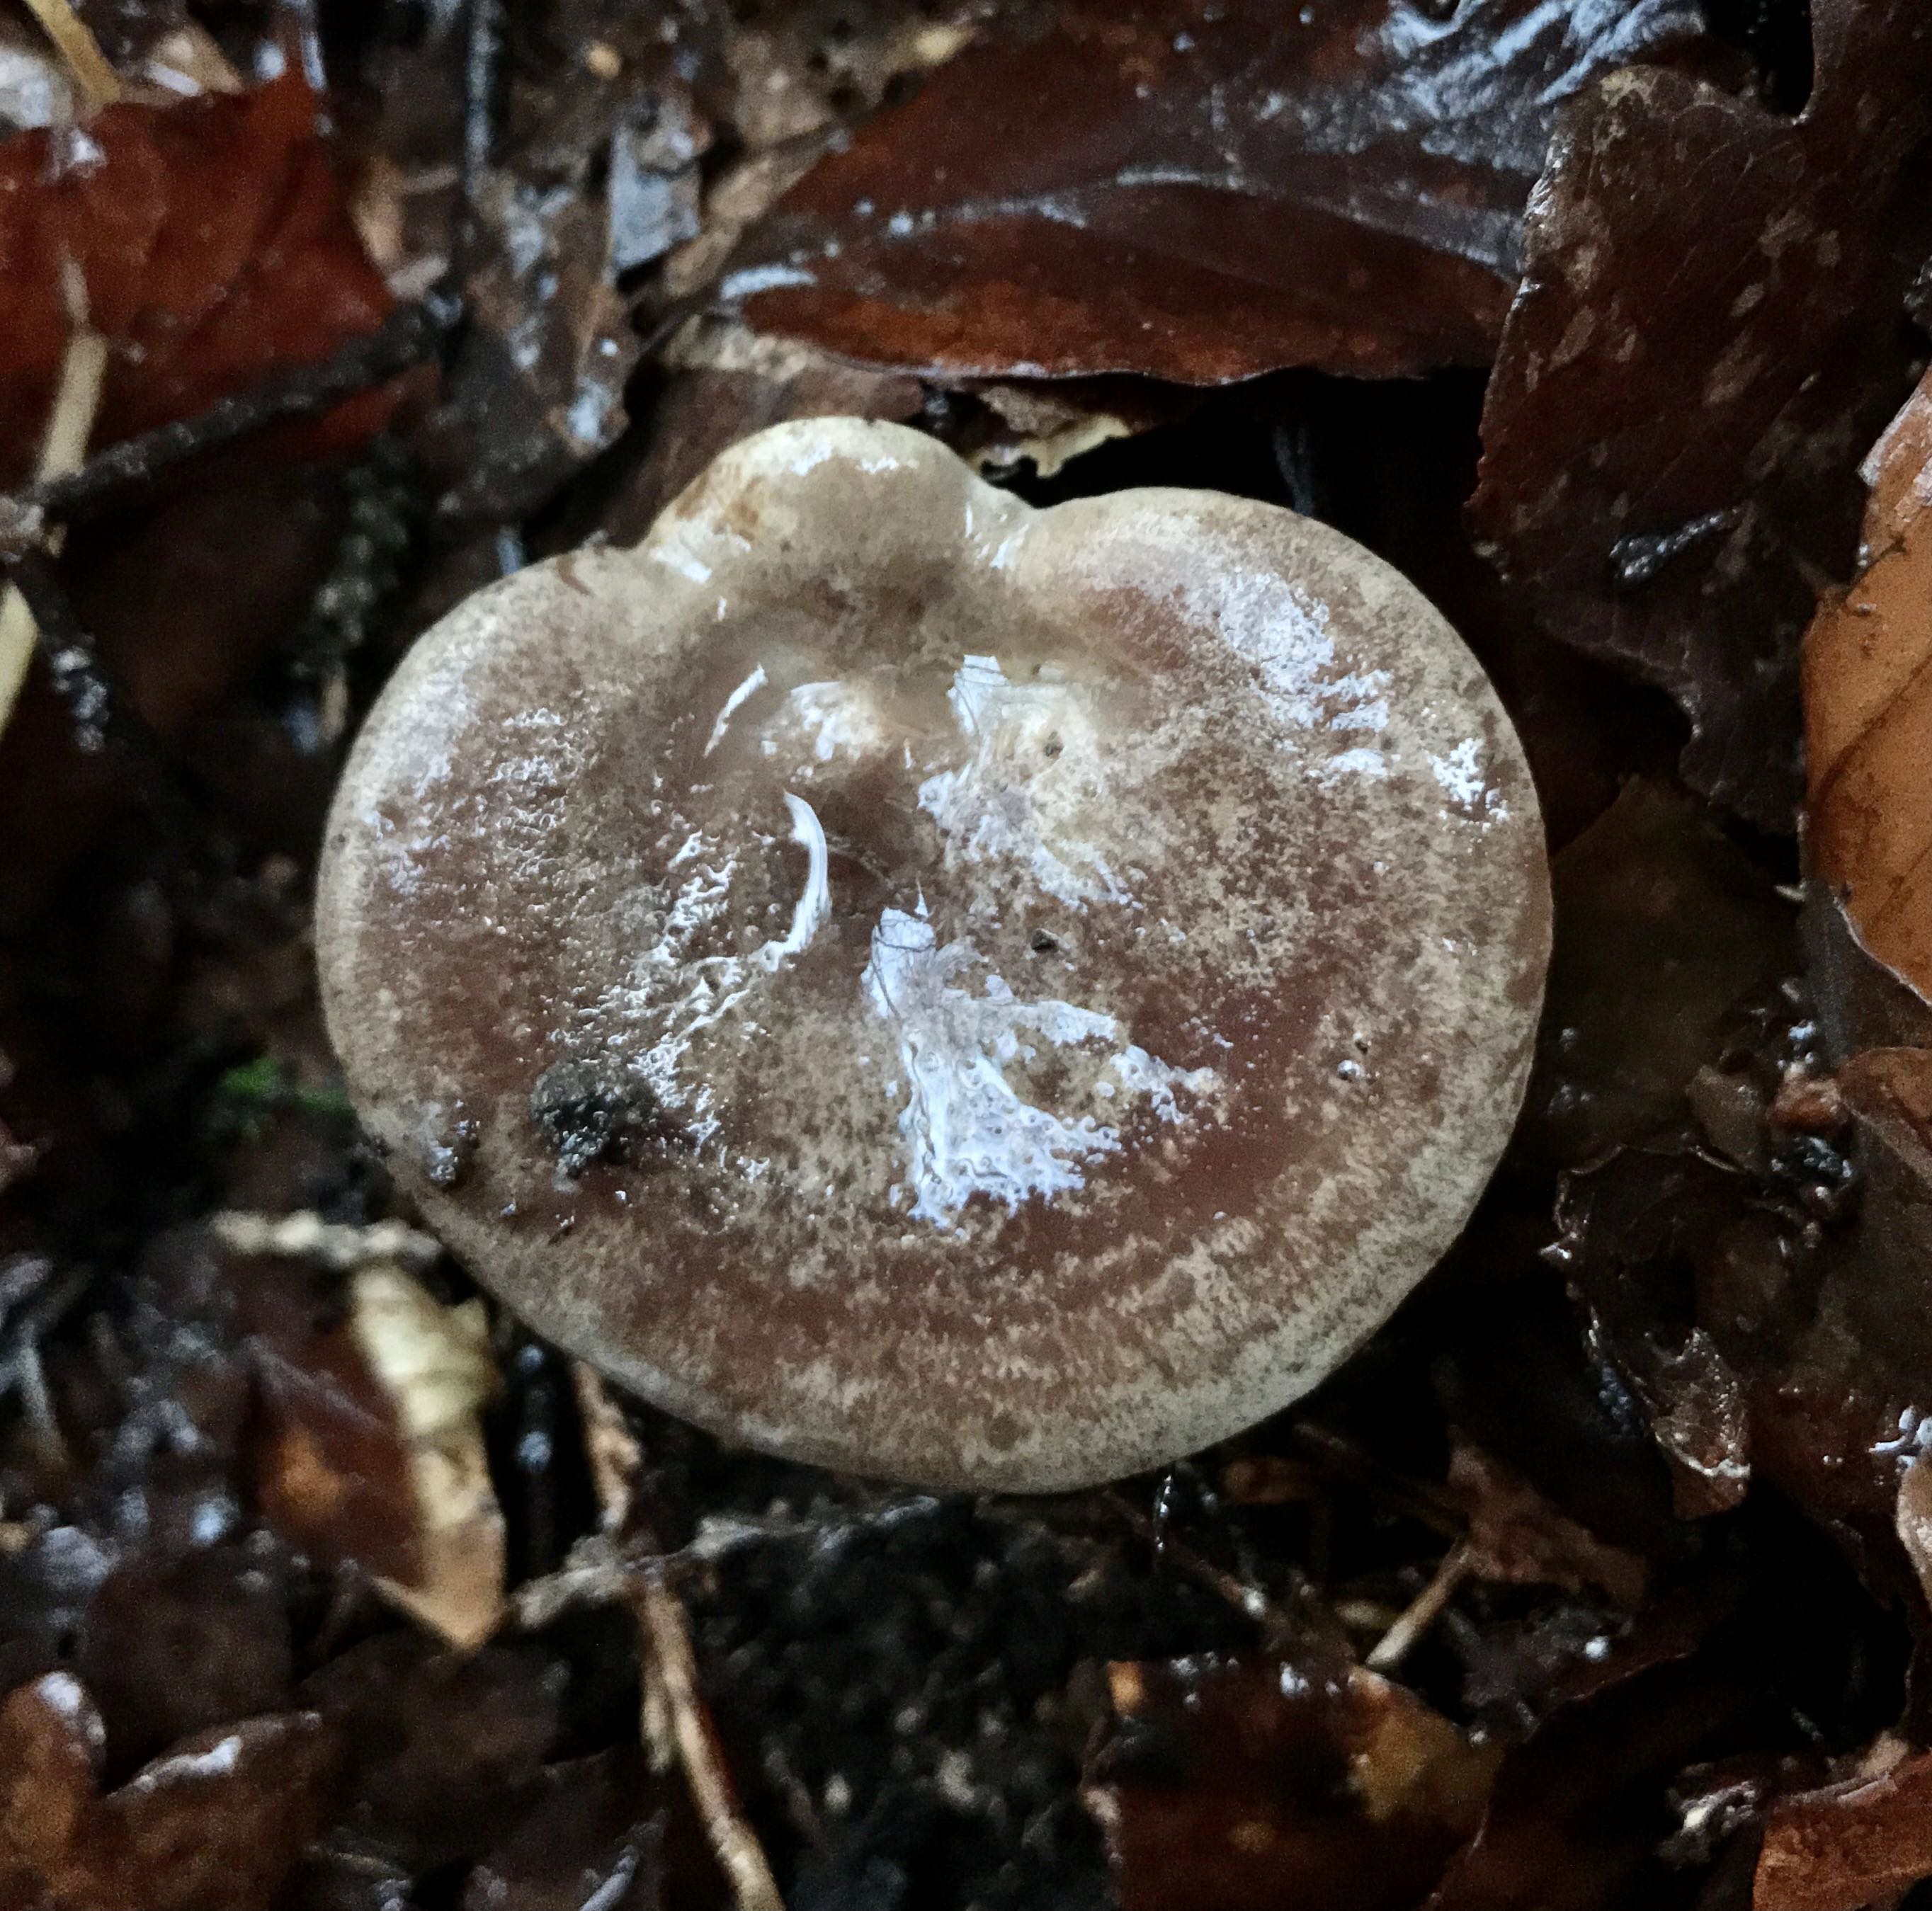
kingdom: Fungi
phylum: Basidiomycota
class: Agaricomycetes
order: Russulales
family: Russulaceae
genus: Lactarius
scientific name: Lactarius blennius
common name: dråbeplettet mælkehat
